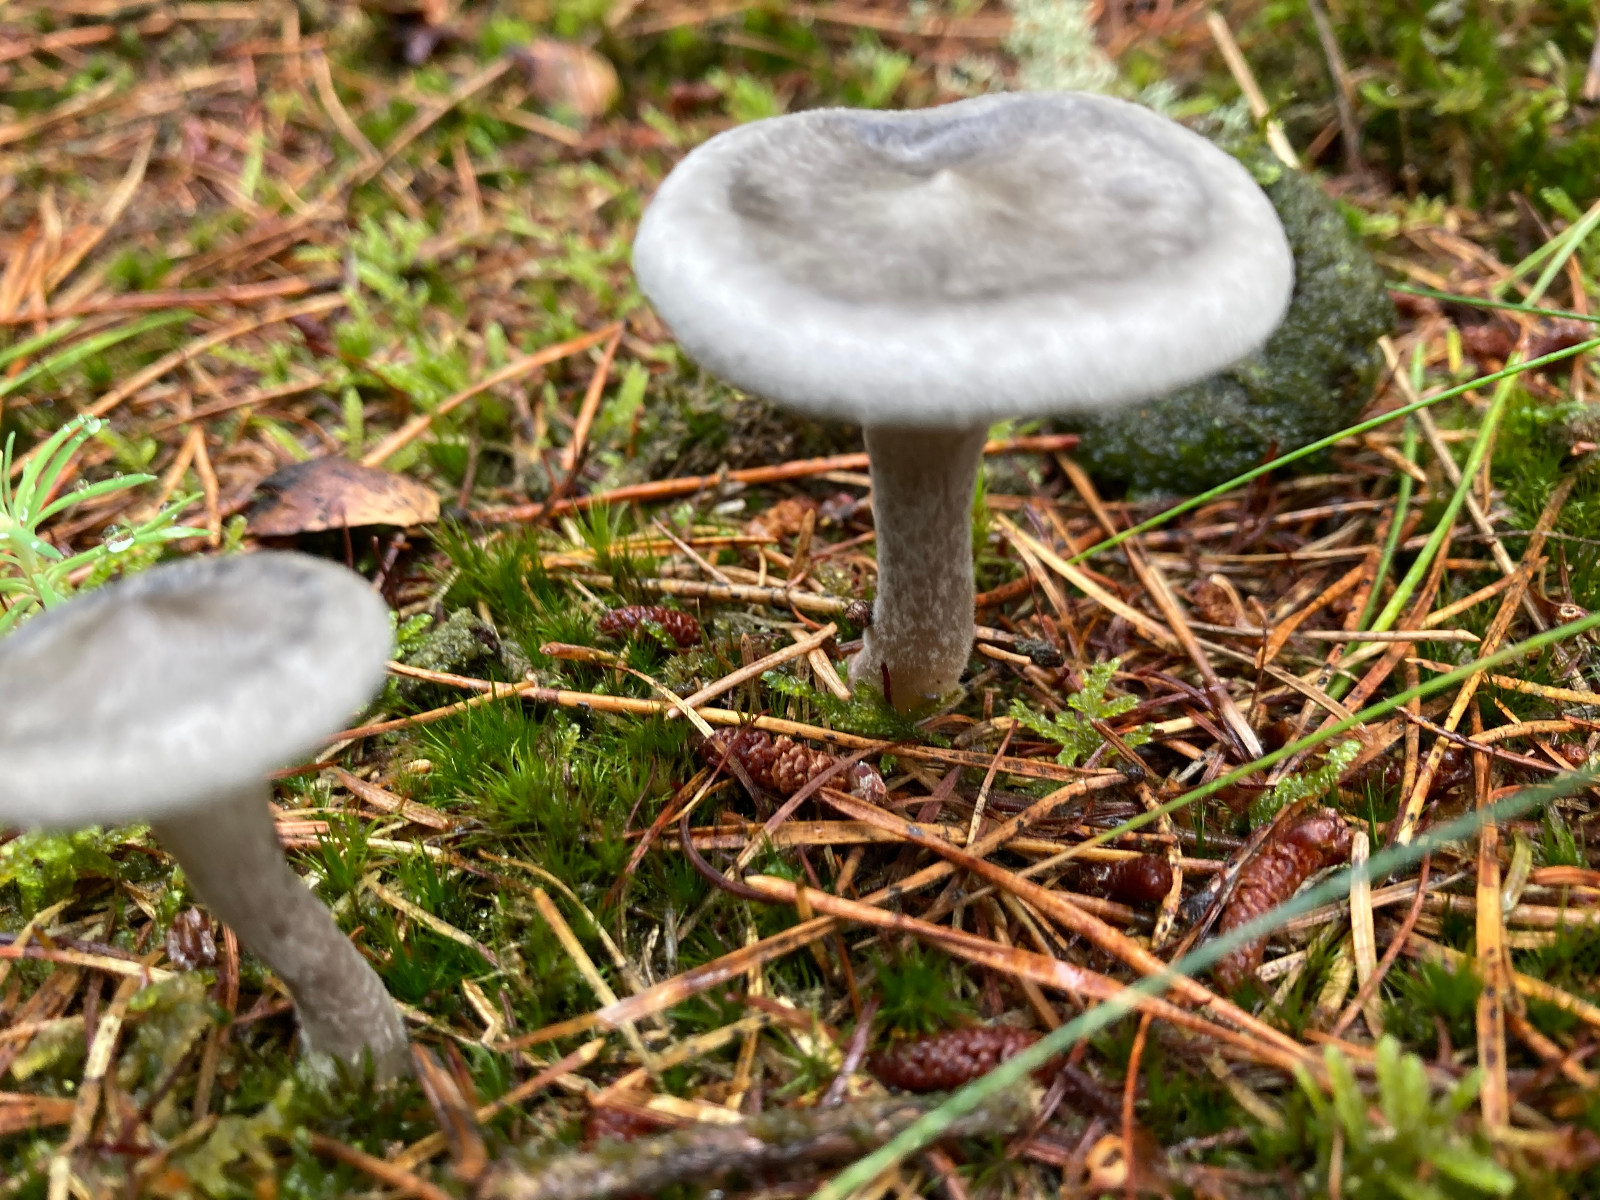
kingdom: Fungi
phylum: Basidiomycota
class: Agaricomycetes
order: Agaricales
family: Hygrophoraceae
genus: Cantharellula
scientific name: Cantharellula umbonata
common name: rødmende gaffelblad
